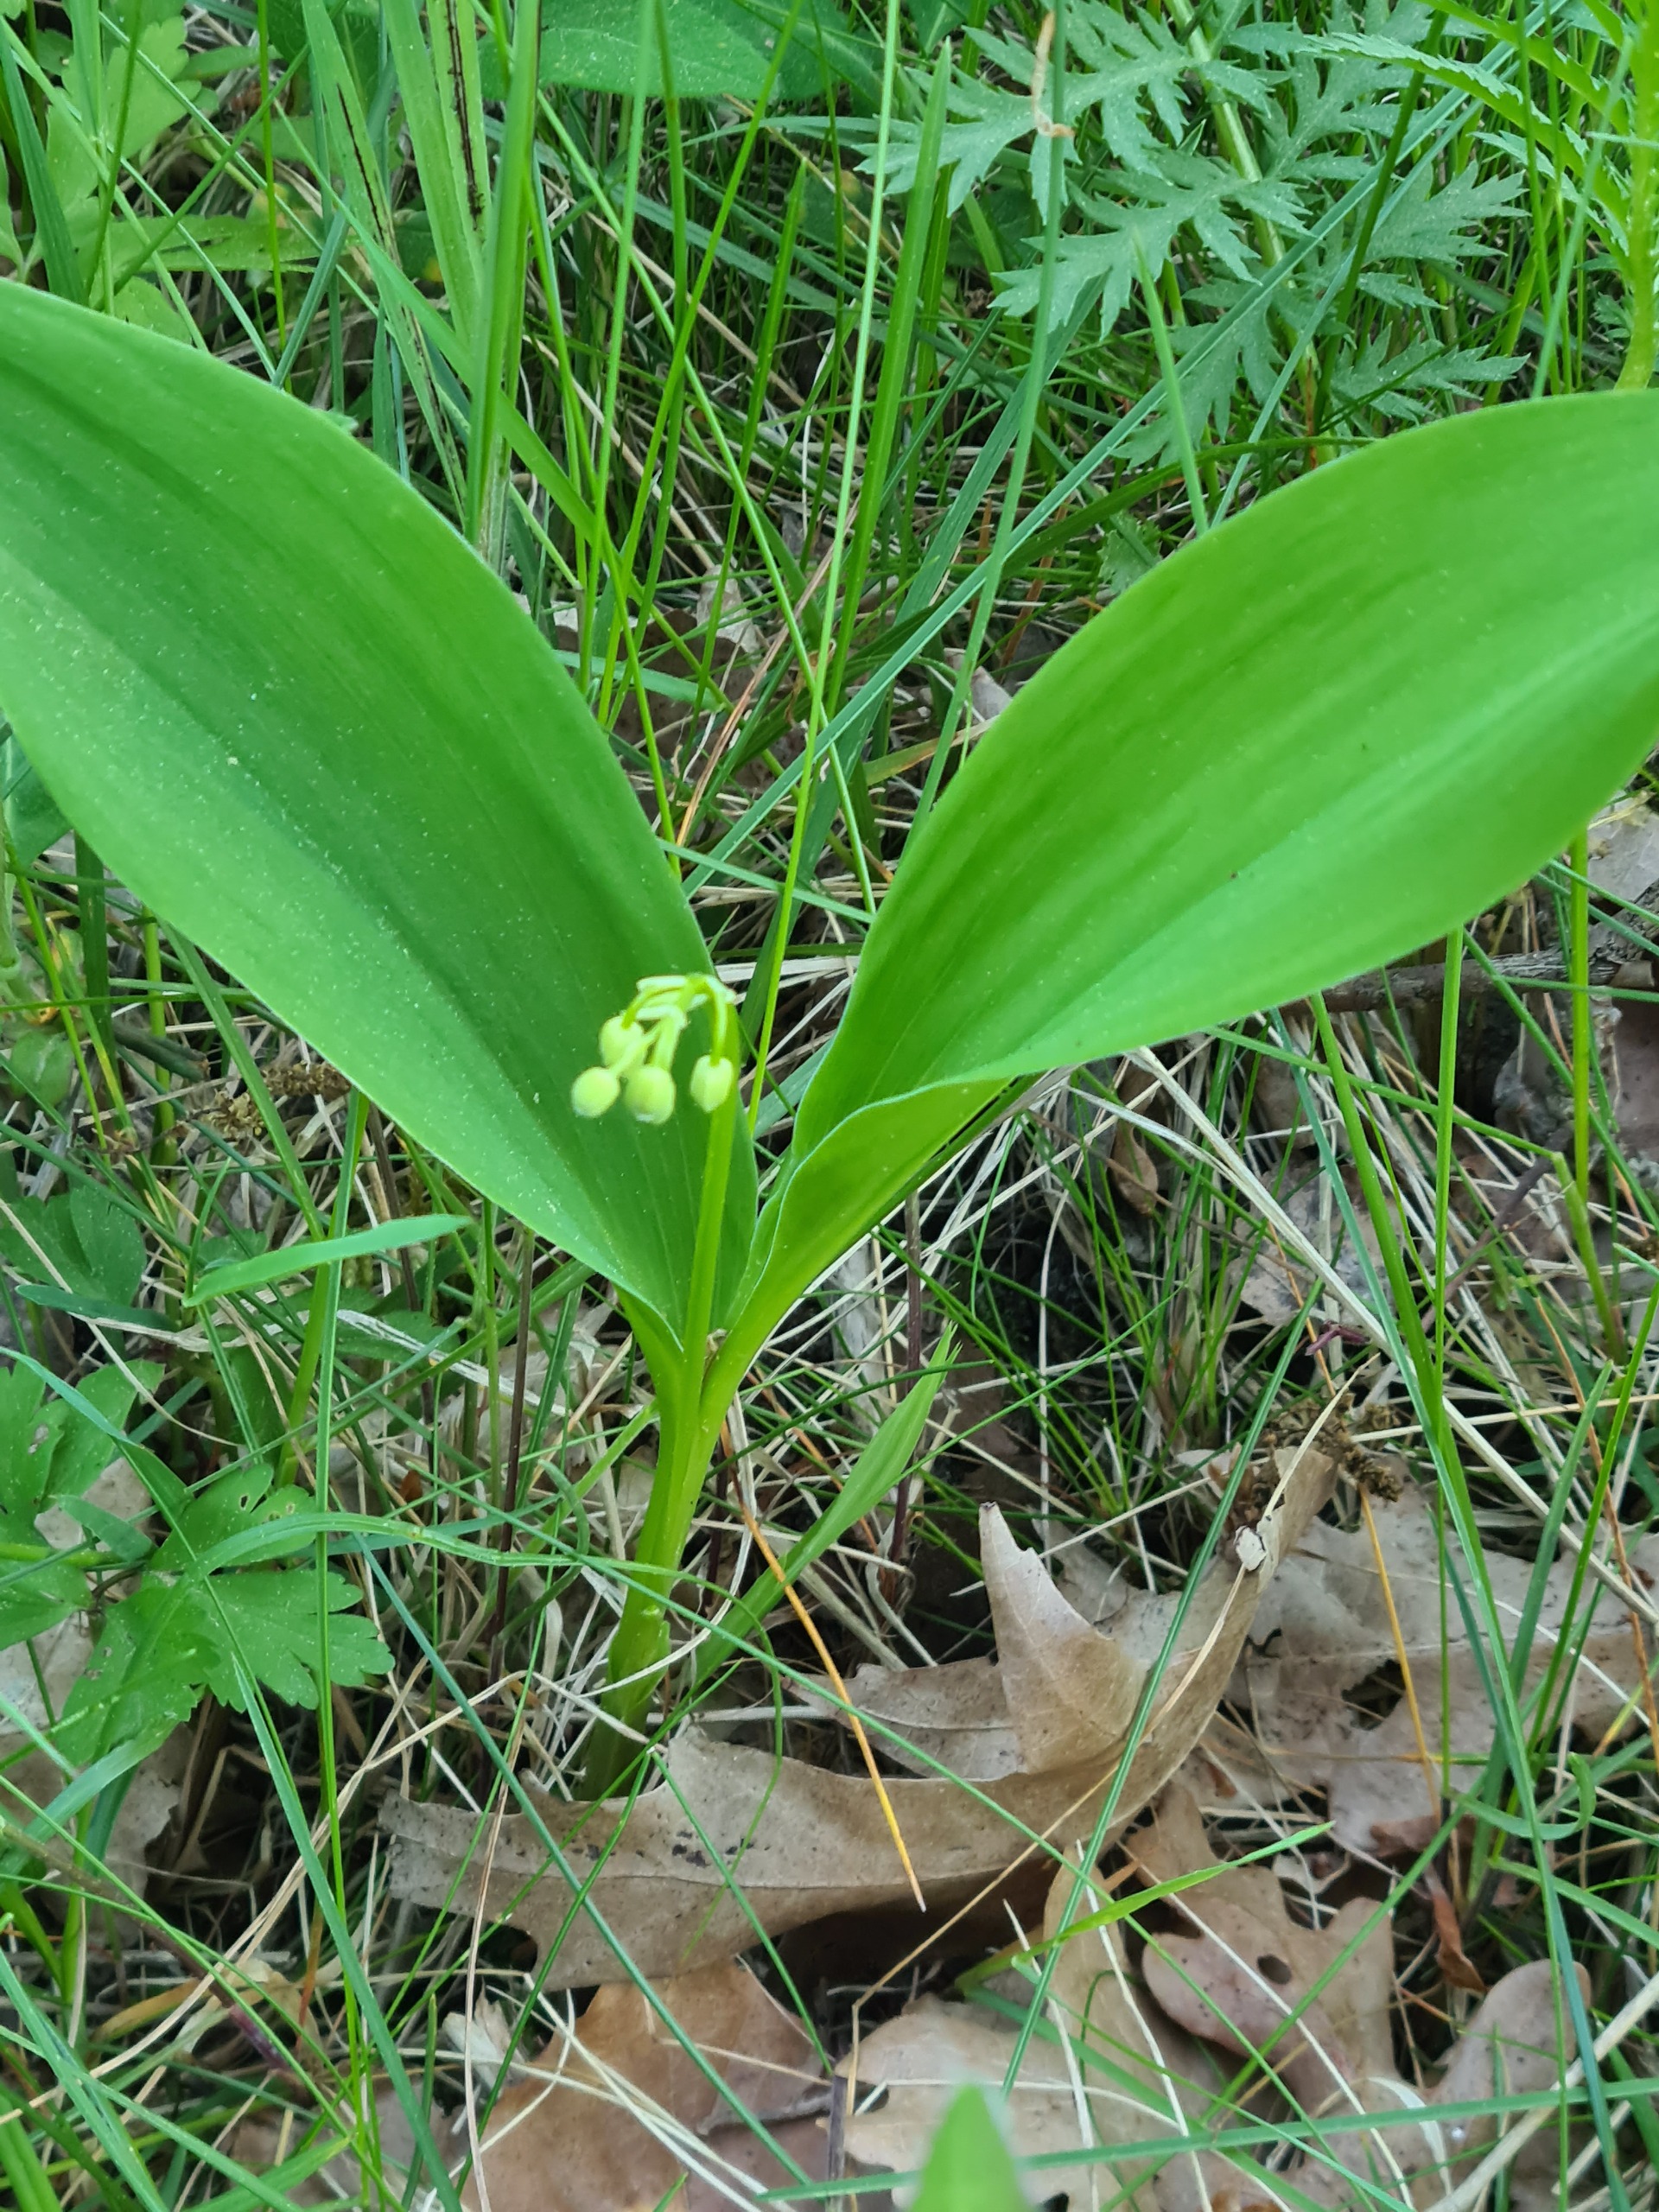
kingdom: Plantae
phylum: Tracheophyta
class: Liliopsida
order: Asparagales
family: Asparagaceae
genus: Convallaria
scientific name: Convallaria majalis
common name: Liljekonval
